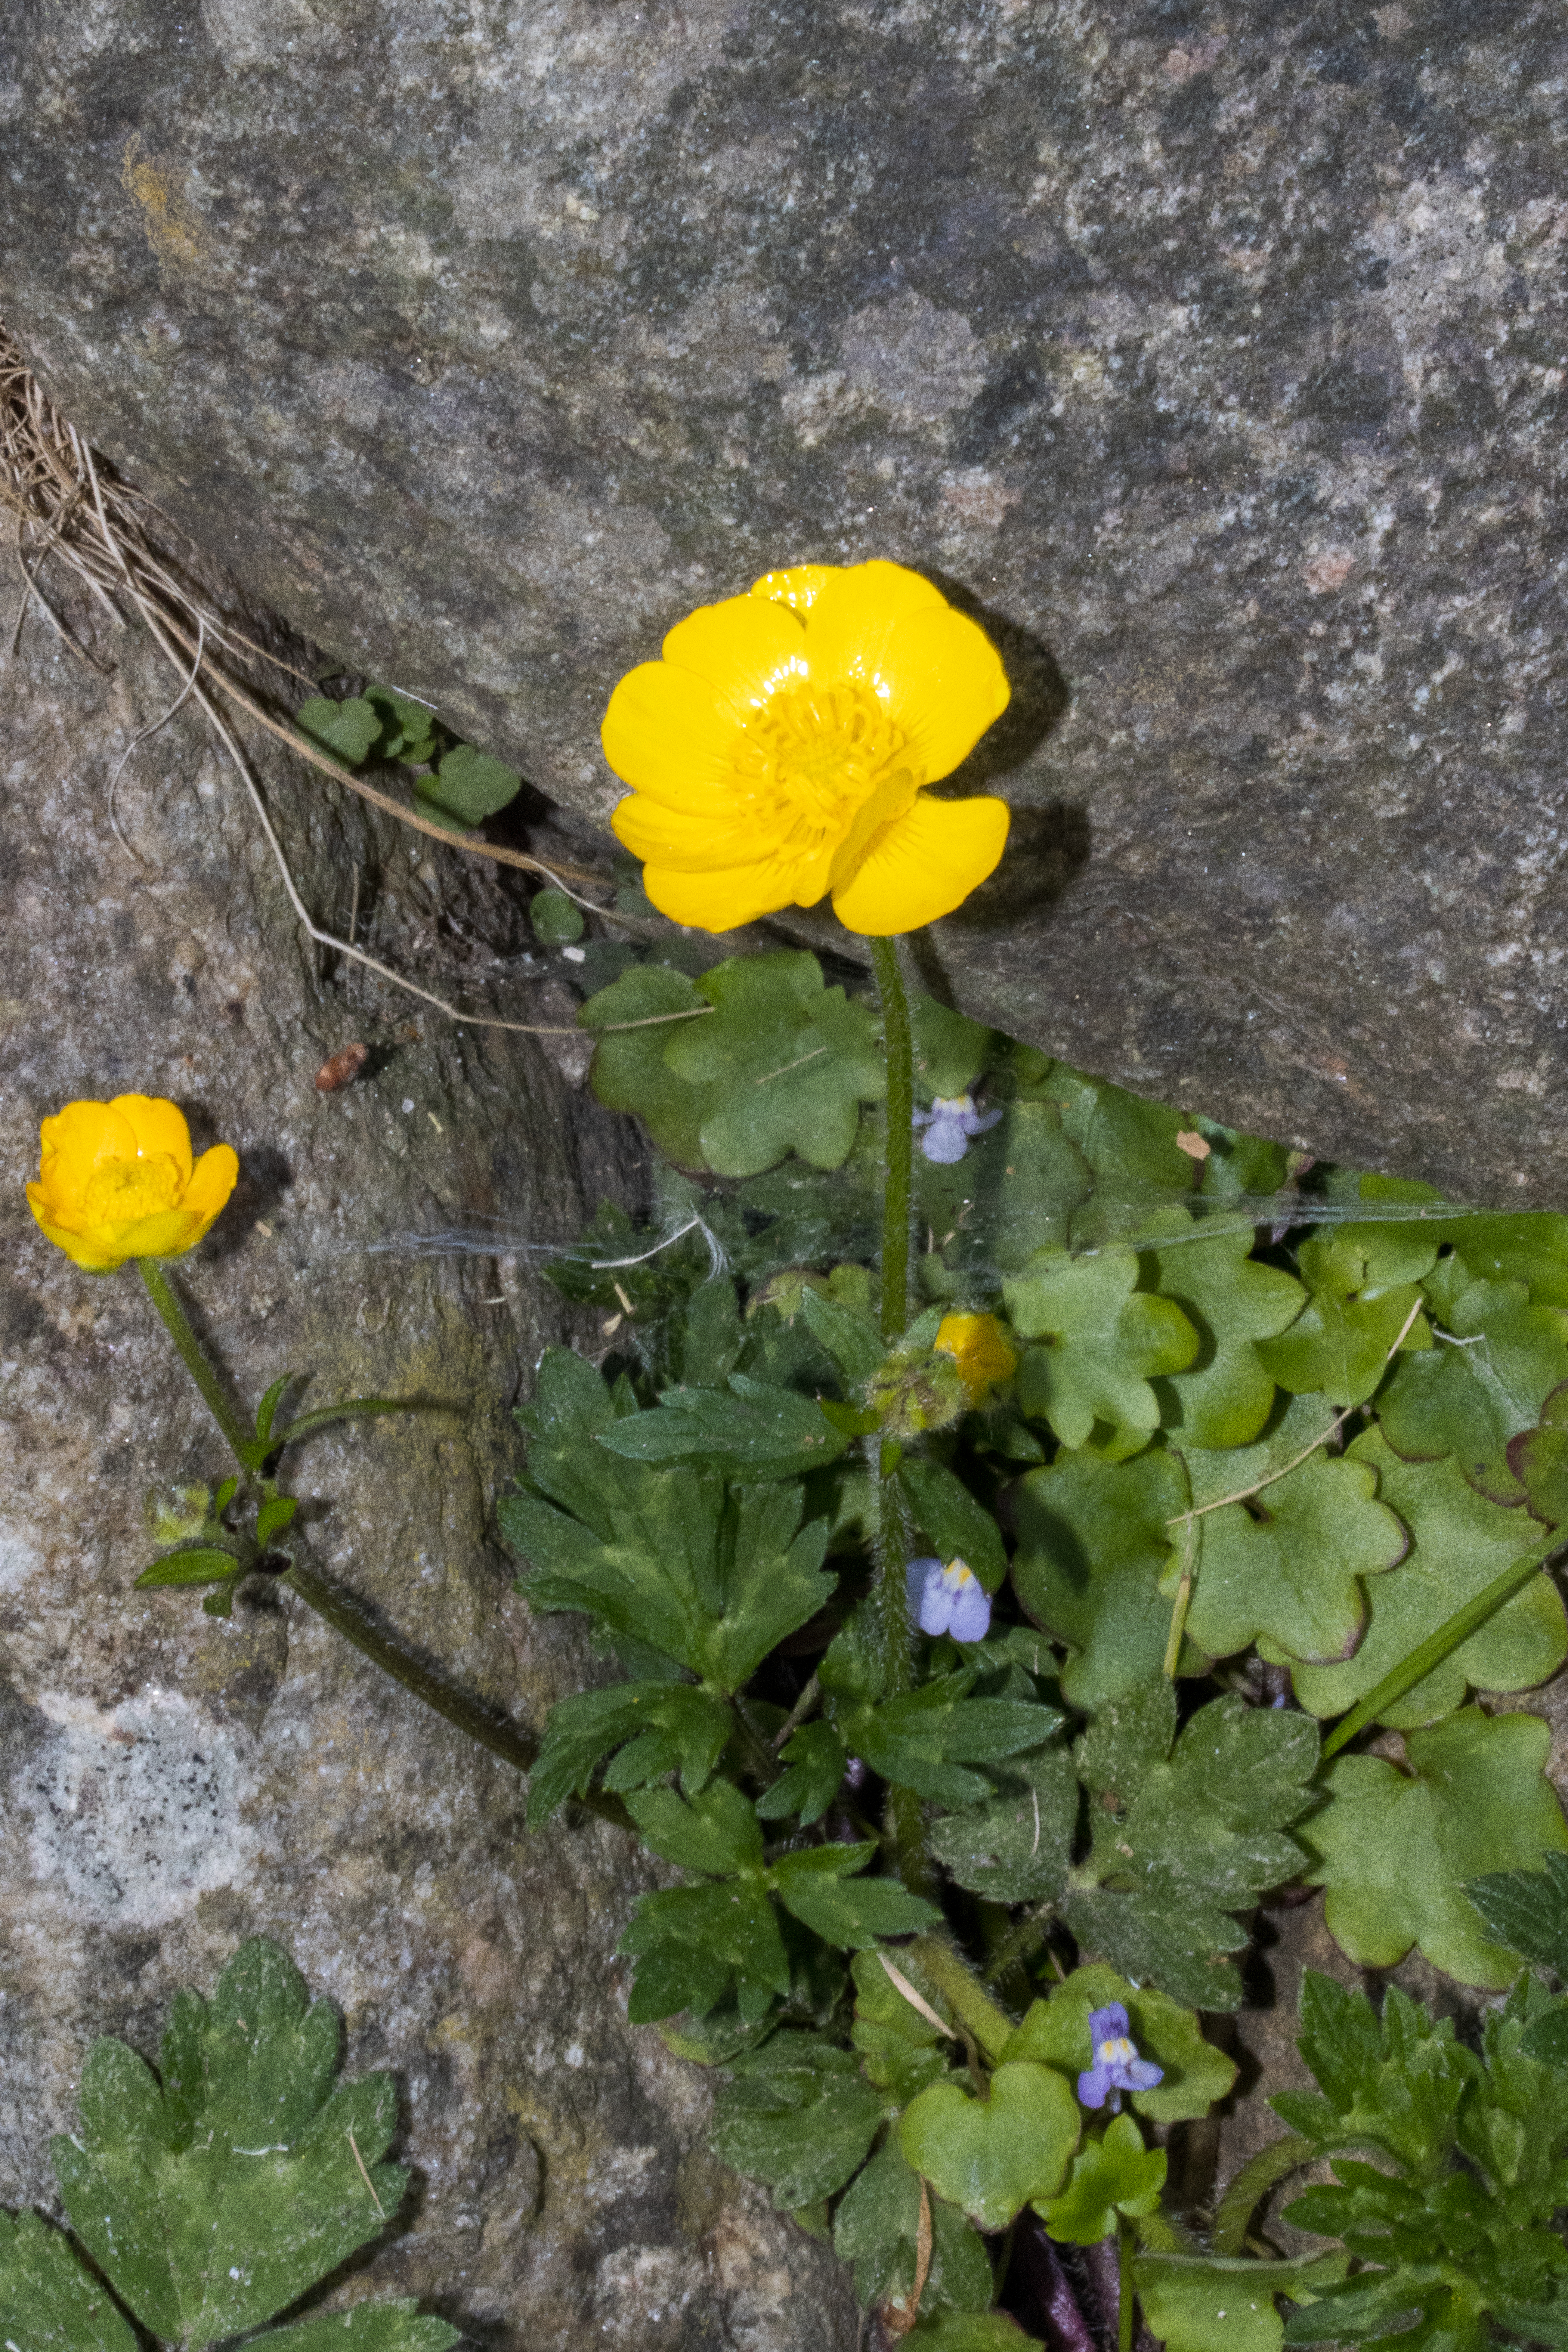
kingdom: Plantae
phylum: Tracheophyta
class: Magnoliopsida
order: Ranunculales
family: Ranunculaceae
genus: Ranunculus
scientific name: Ranunculus repens
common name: Lav ranunkel
